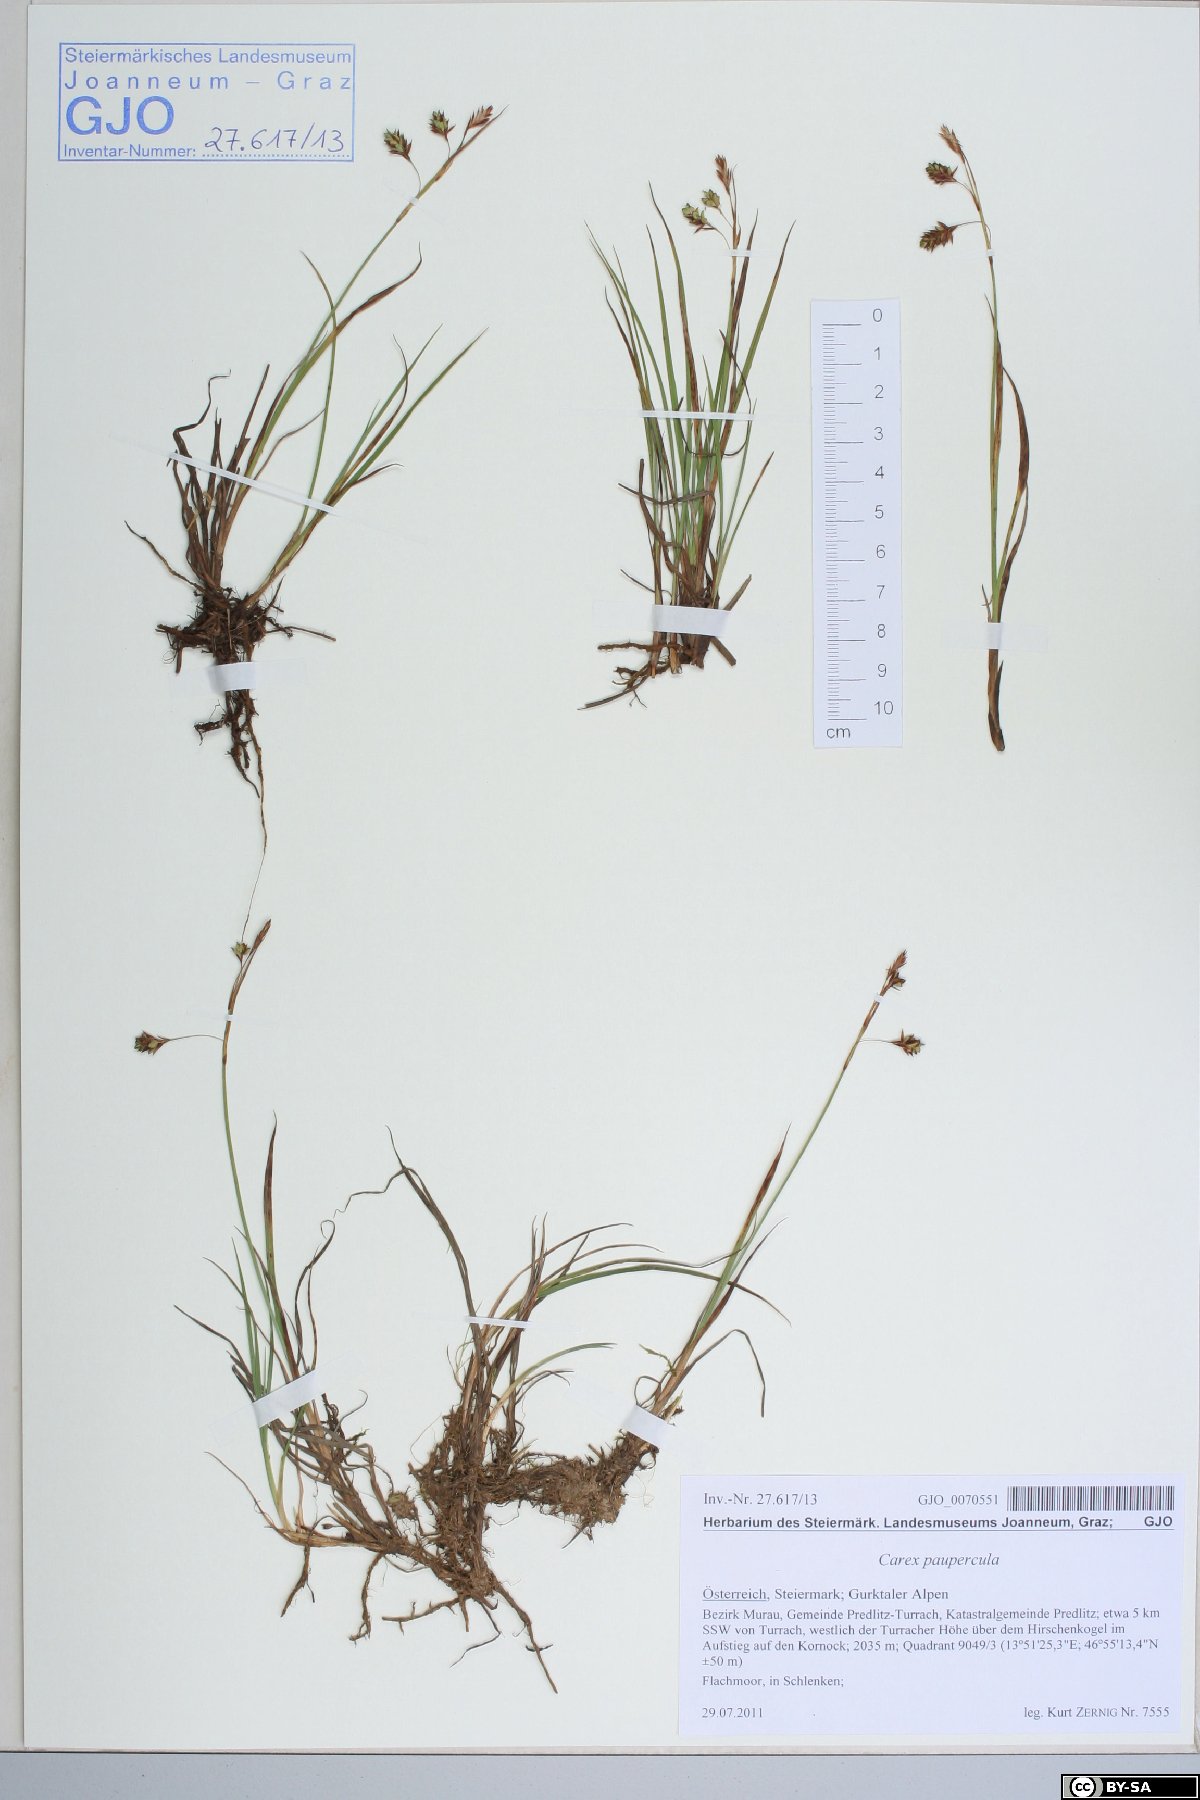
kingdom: Plantae
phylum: Tracheophyta
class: Liliopsida
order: Poales
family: Cyperaceae
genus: Carex
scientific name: Carex magellanica
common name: Bog sedge
